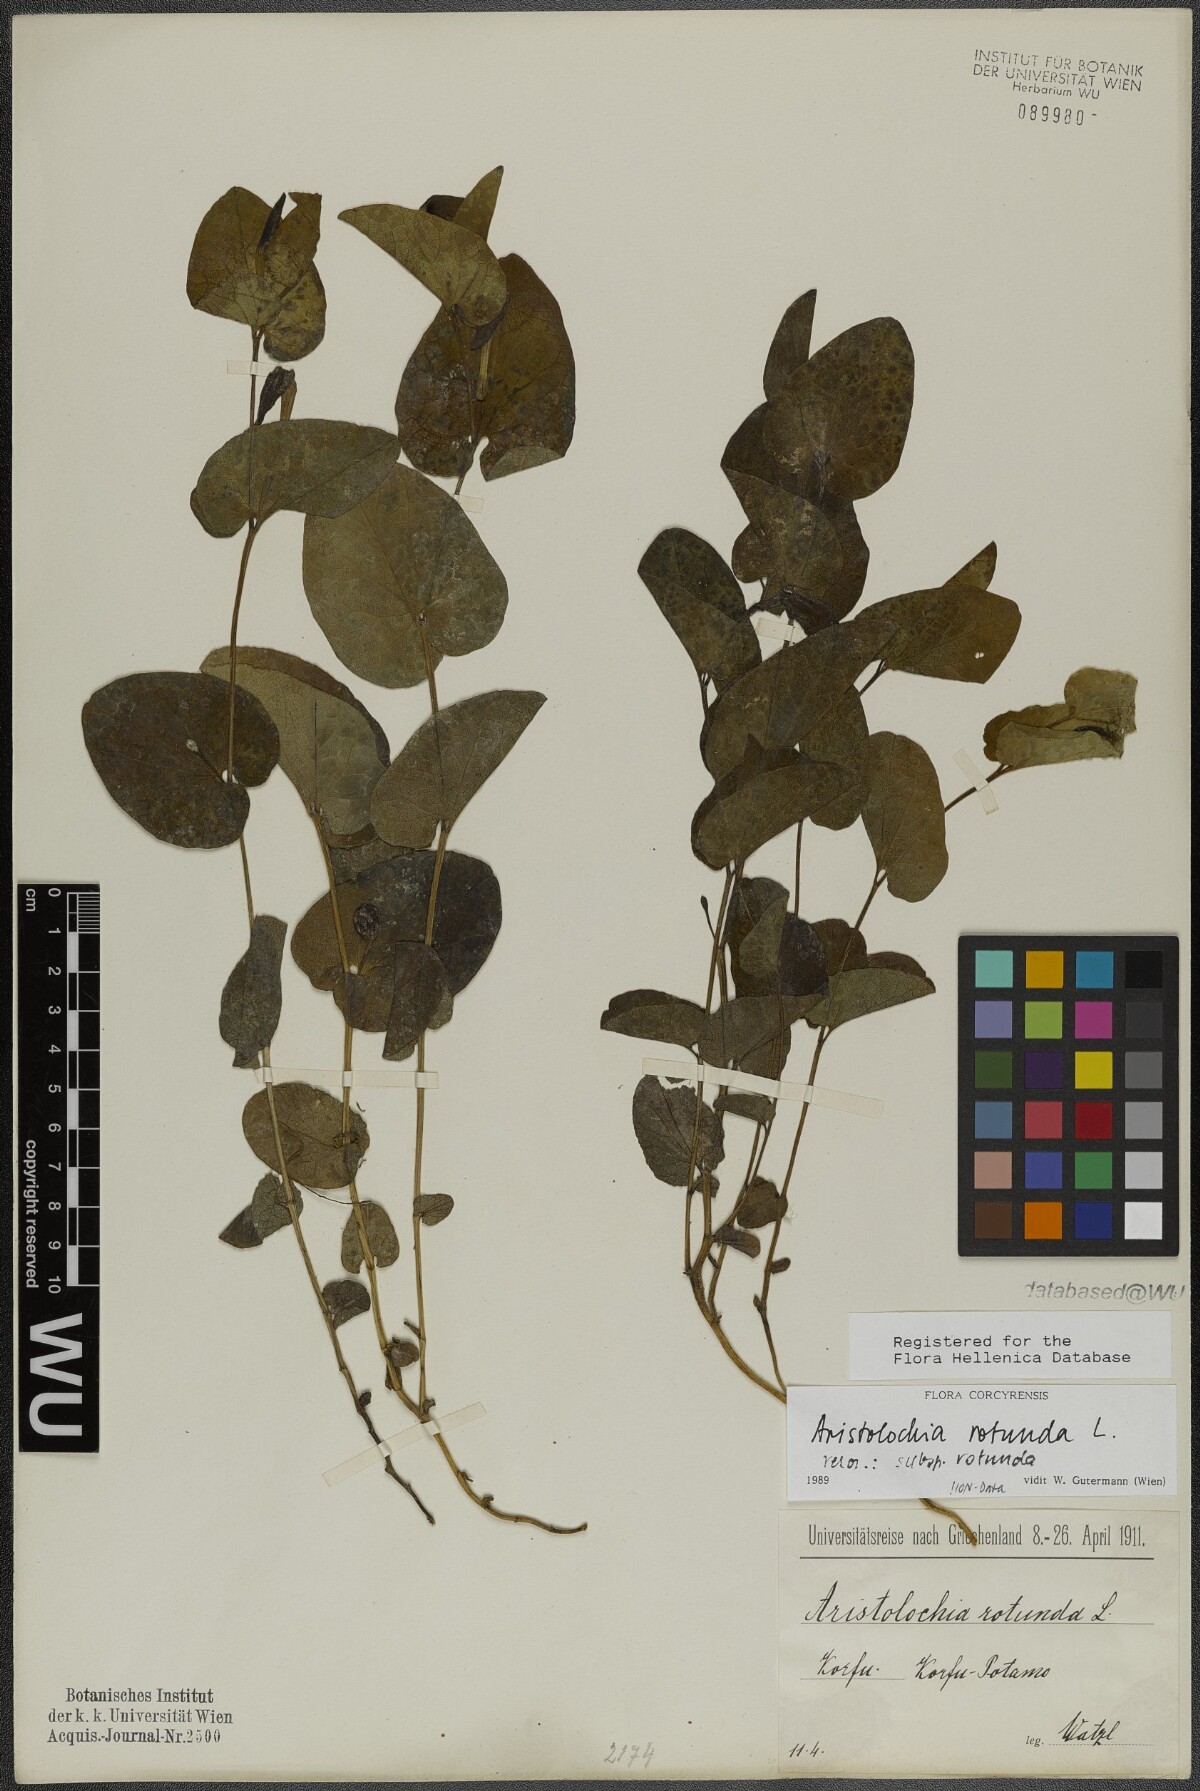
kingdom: Plantae
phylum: Tracheophyta
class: Magnoliopsida
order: Piperales
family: Aristolochiaceae
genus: Aristolochia
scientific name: Aristolochia rotunda
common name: Smearwort
